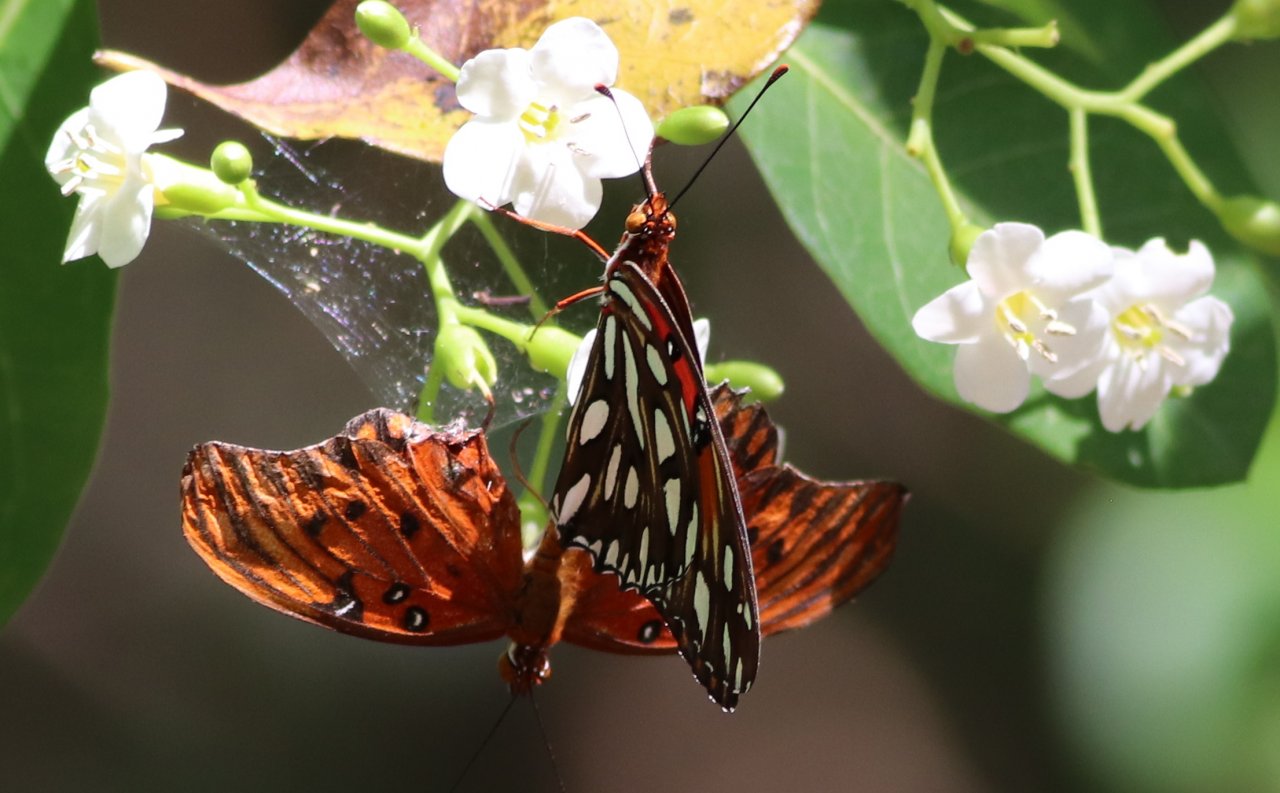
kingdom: Animalia
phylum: Arthropoda
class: Insecta
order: Lepidoptera
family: Nymphalidae
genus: Dione
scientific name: Dione vanillae
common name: Gulf Fritillary
